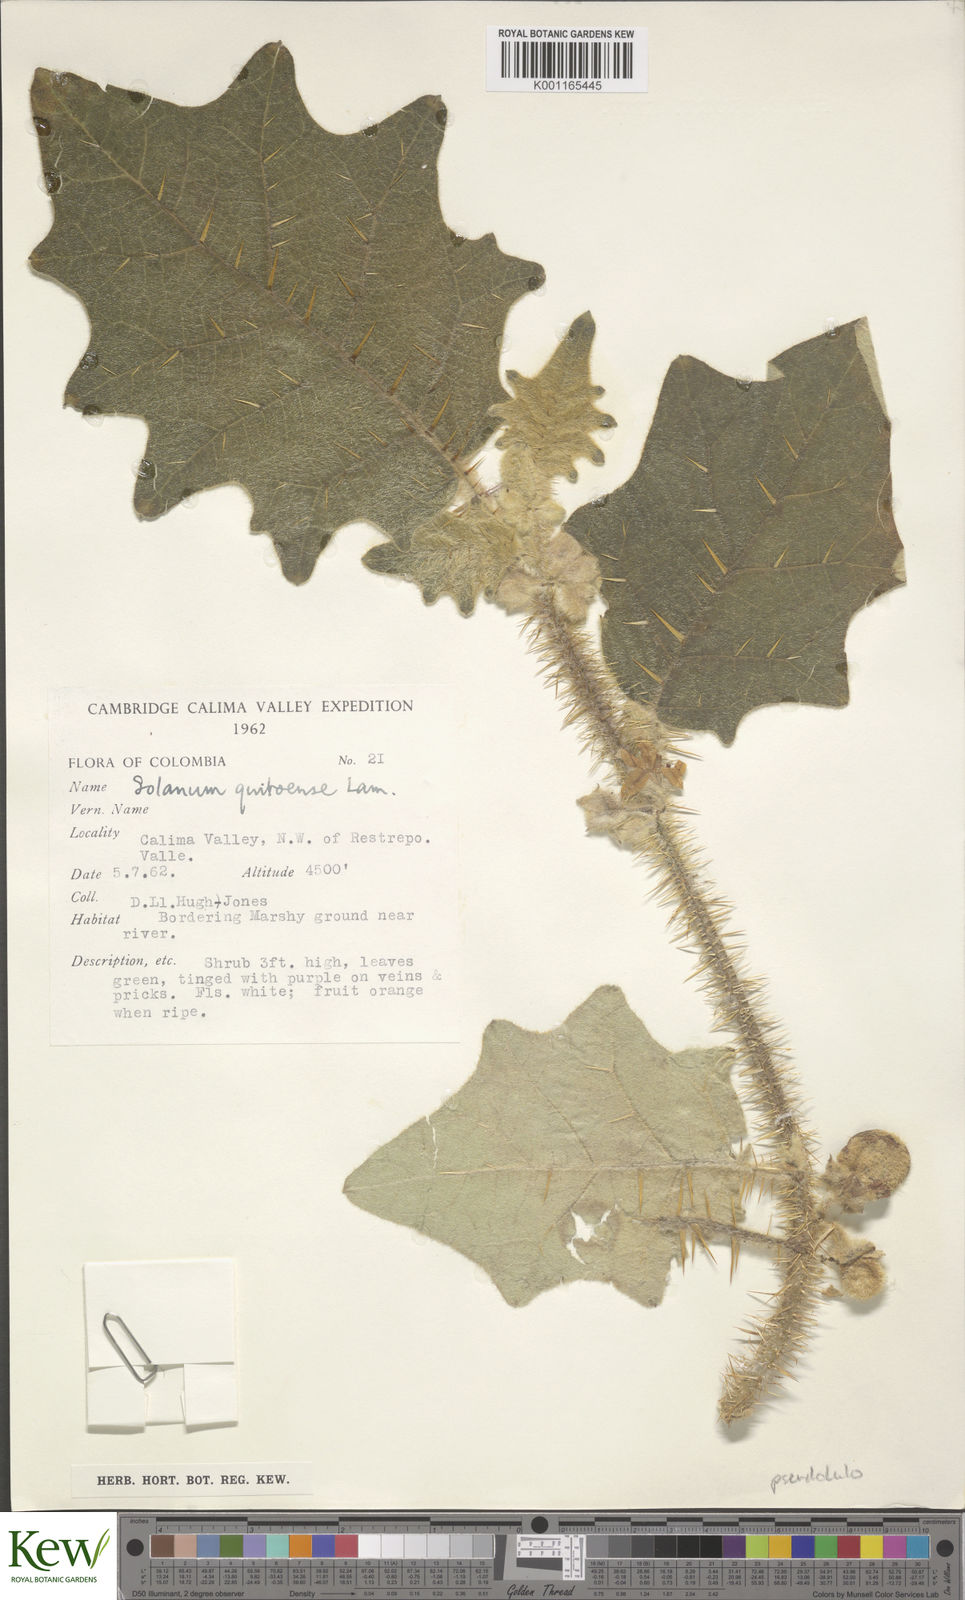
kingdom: Plantae
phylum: Tracheophyta
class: Magnoliopsida
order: Solanales
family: Solanaceae
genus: Solanum
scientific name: Solanum pseudolulo
